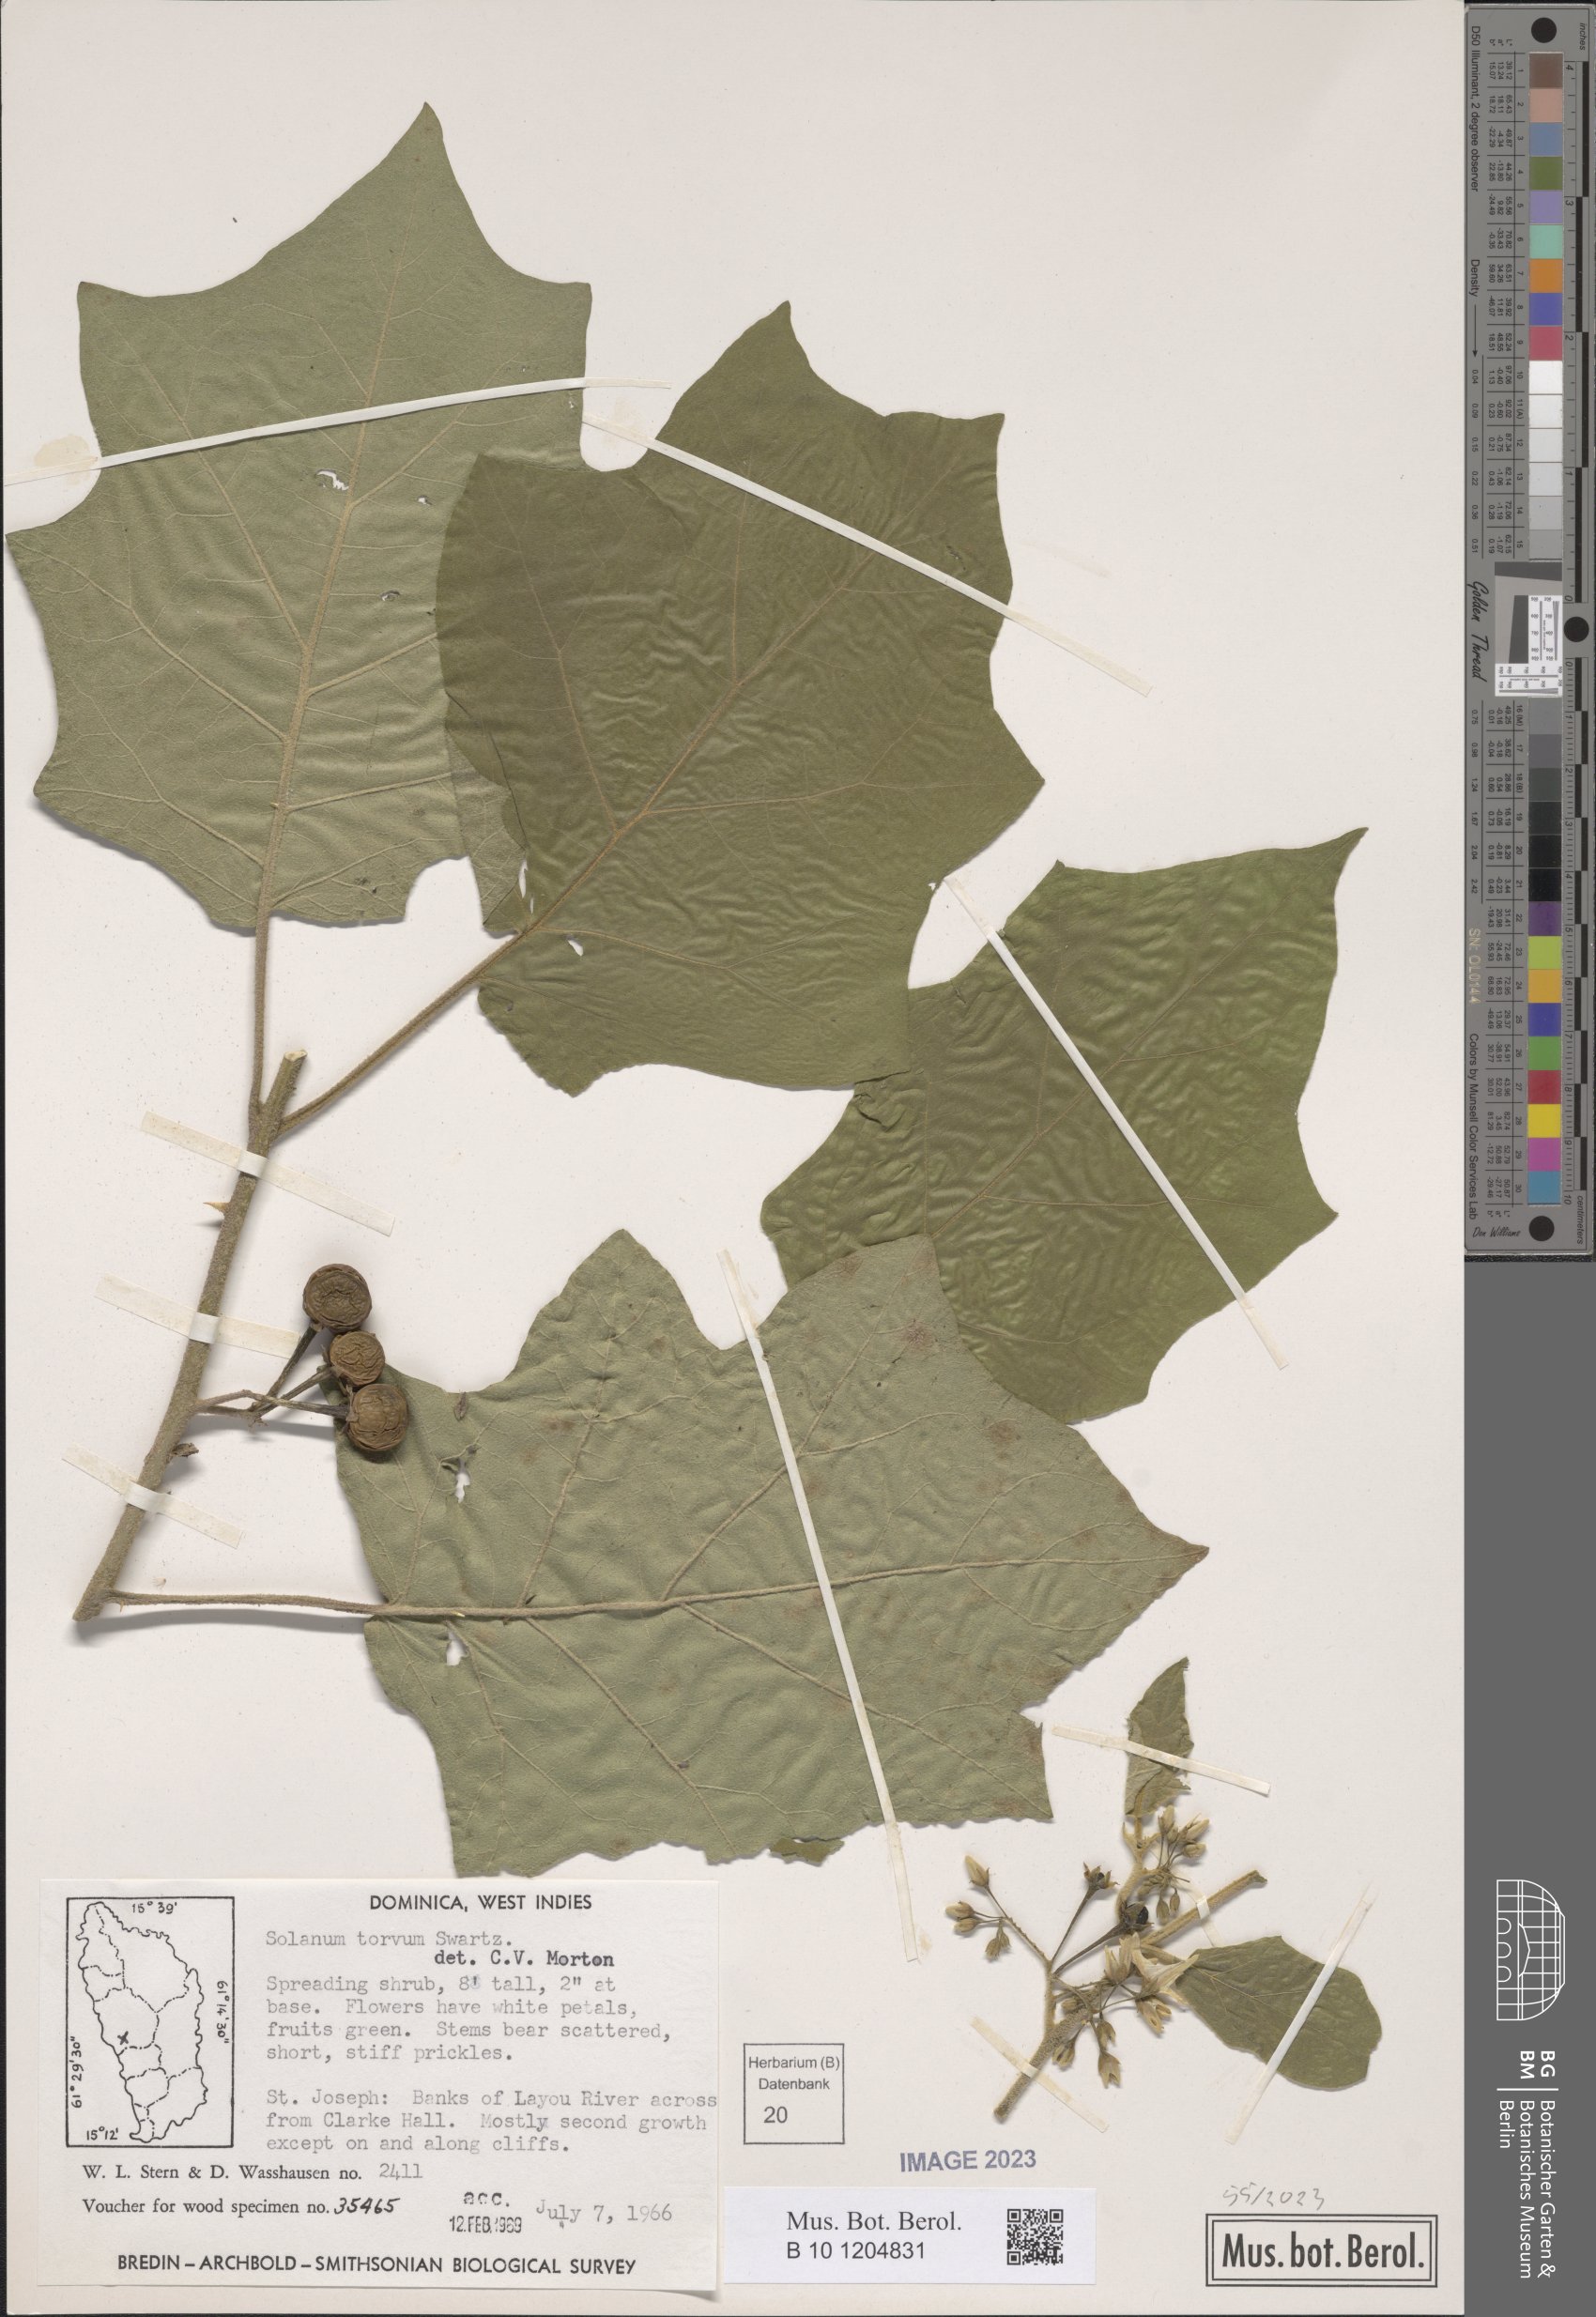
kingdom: Plantae
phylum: Tracheophyta
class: Magnoliopsida
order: Solanales
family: Solanaceae
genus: Solanum
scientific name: Solanum torvum
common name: Turkey berry
